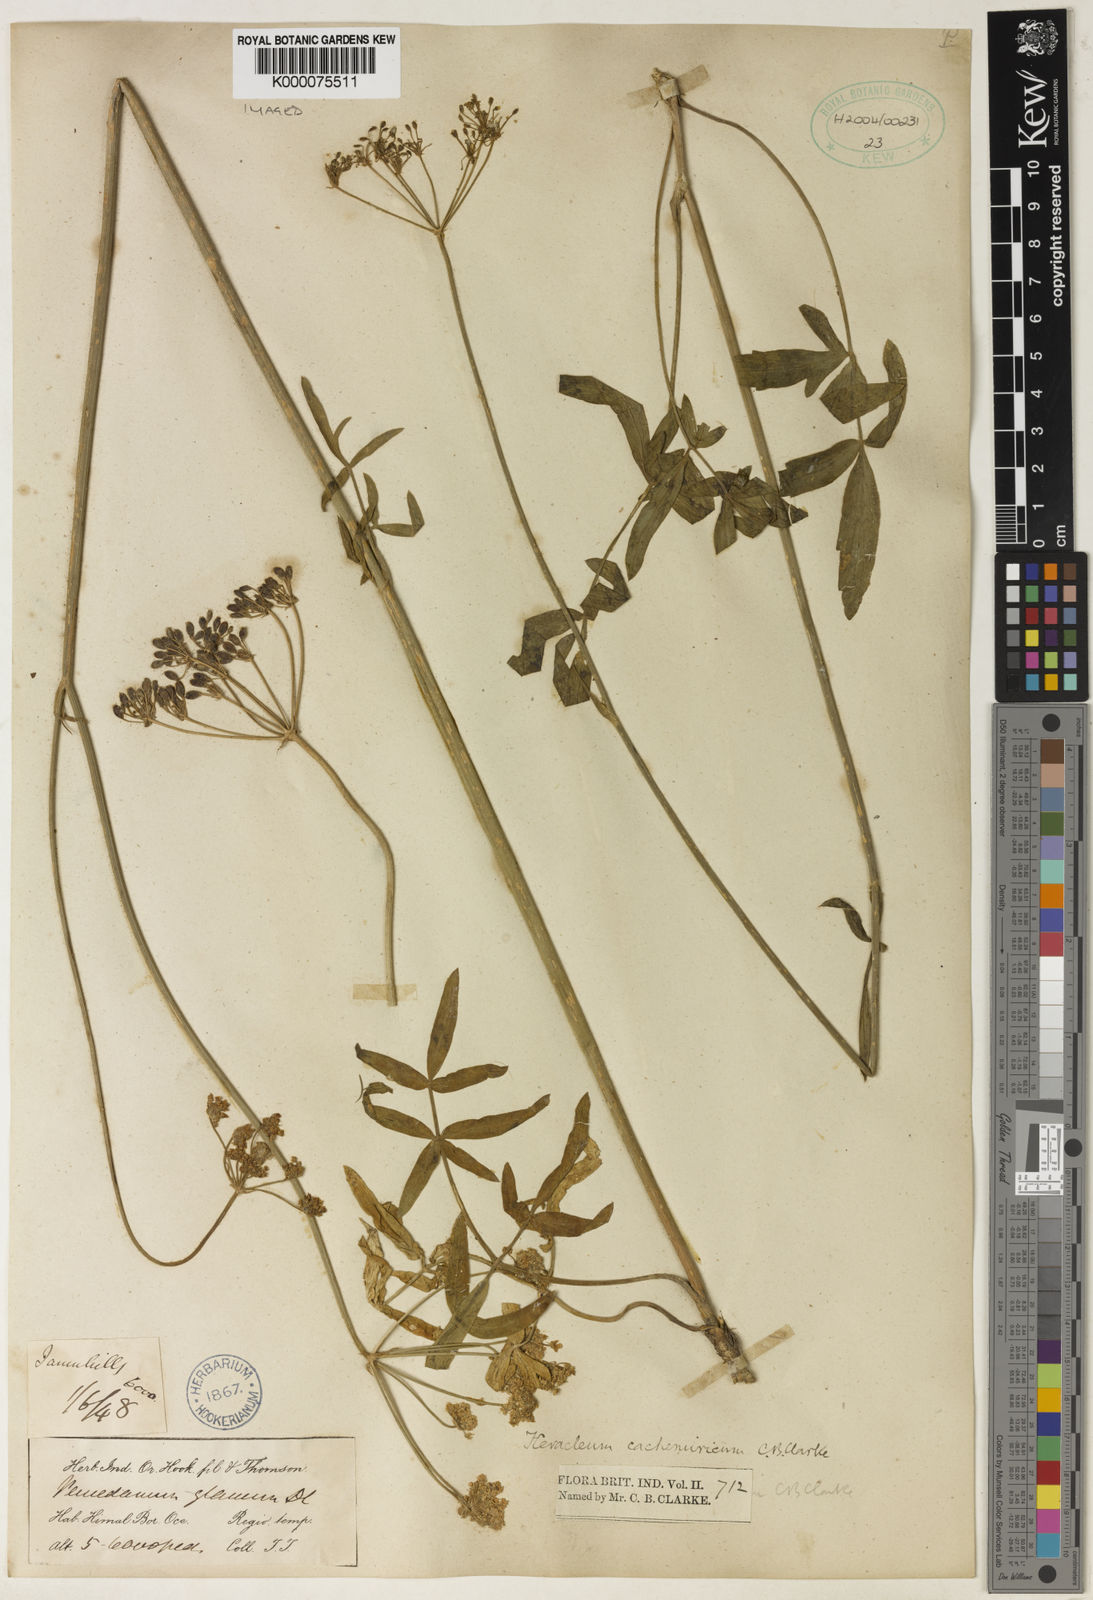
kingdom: Plantae
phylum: Tracheophyta
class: Magnoliopsida
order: Apiales
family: Apiaceae
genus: Tricholaser
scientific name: Tricholaser cachemiricum
